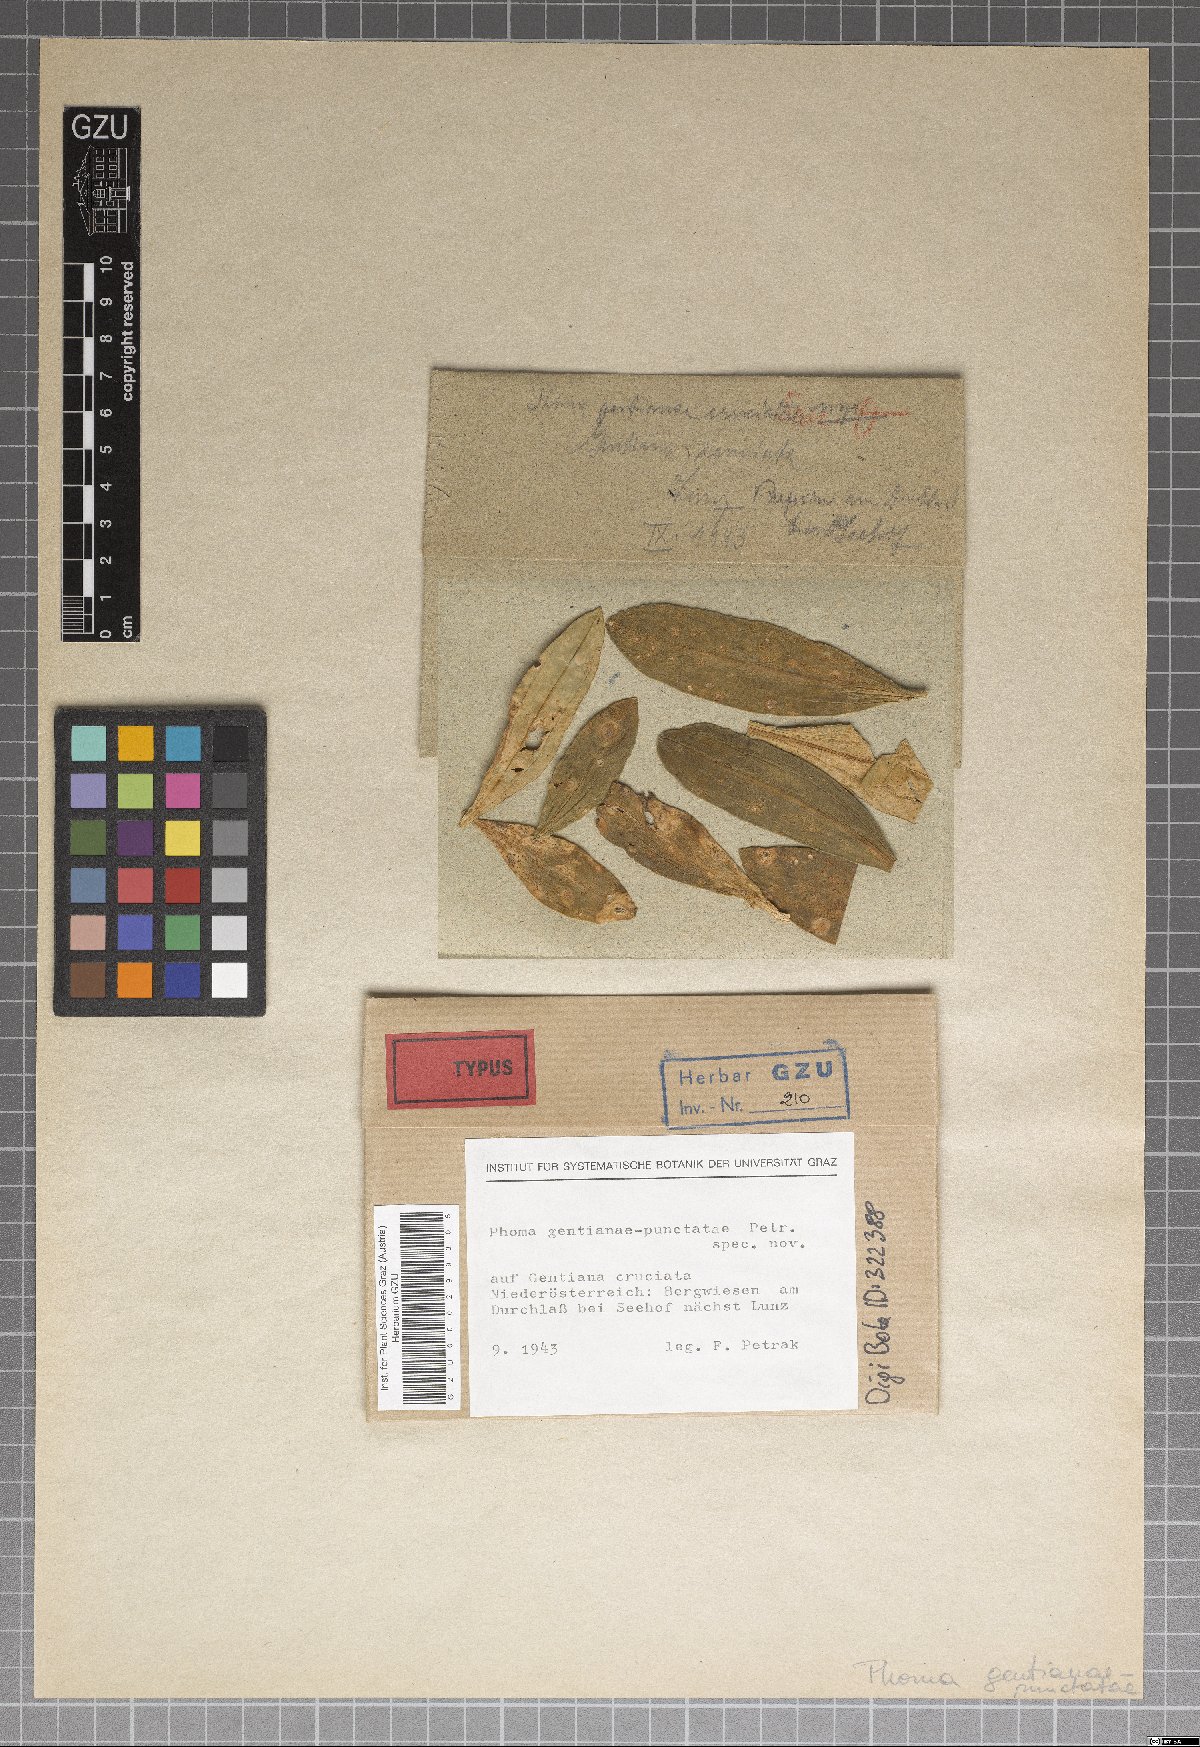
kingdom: Fungi
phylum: Ascomycota
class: Dothideomycetes
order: Pleosporales
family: Didymellaceae
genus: Phoma
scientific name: Phoma gentianae-punctatae
